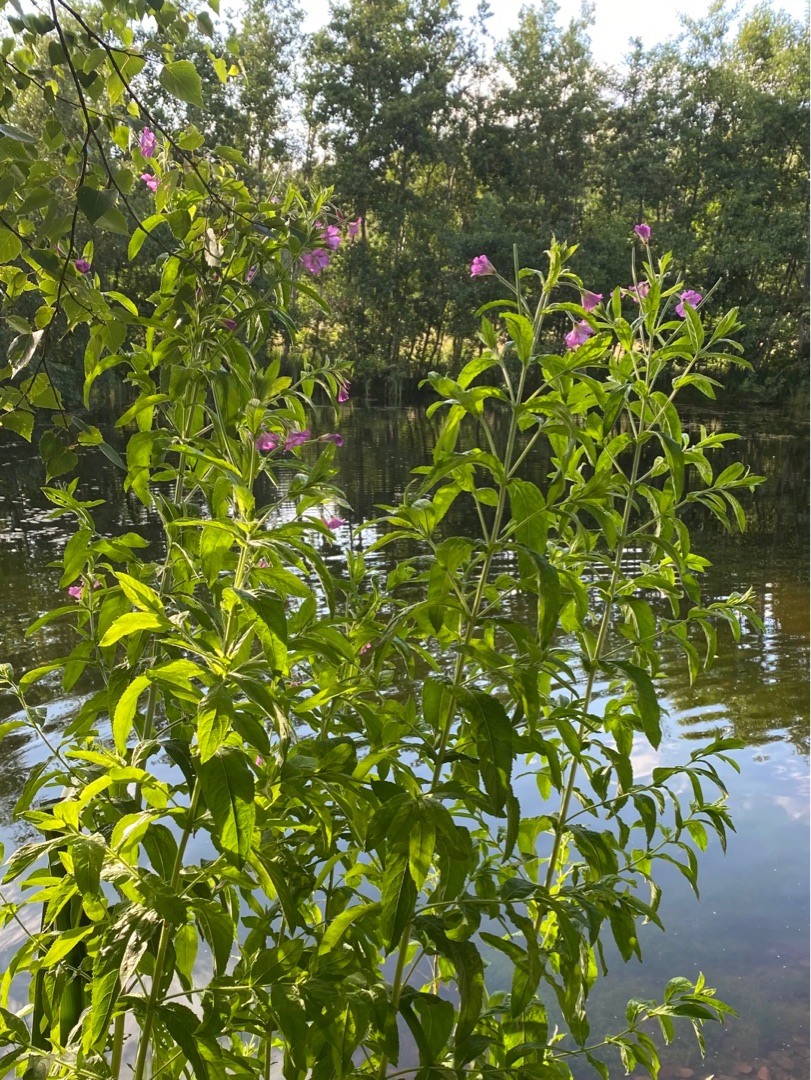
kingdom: Plantae
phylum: Tracheophyta
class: Magnoliopsida
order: Myrtales
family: Onagraceae
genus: Epilobium
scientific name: Epilobium hirsutum
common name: Lådden dueurt
